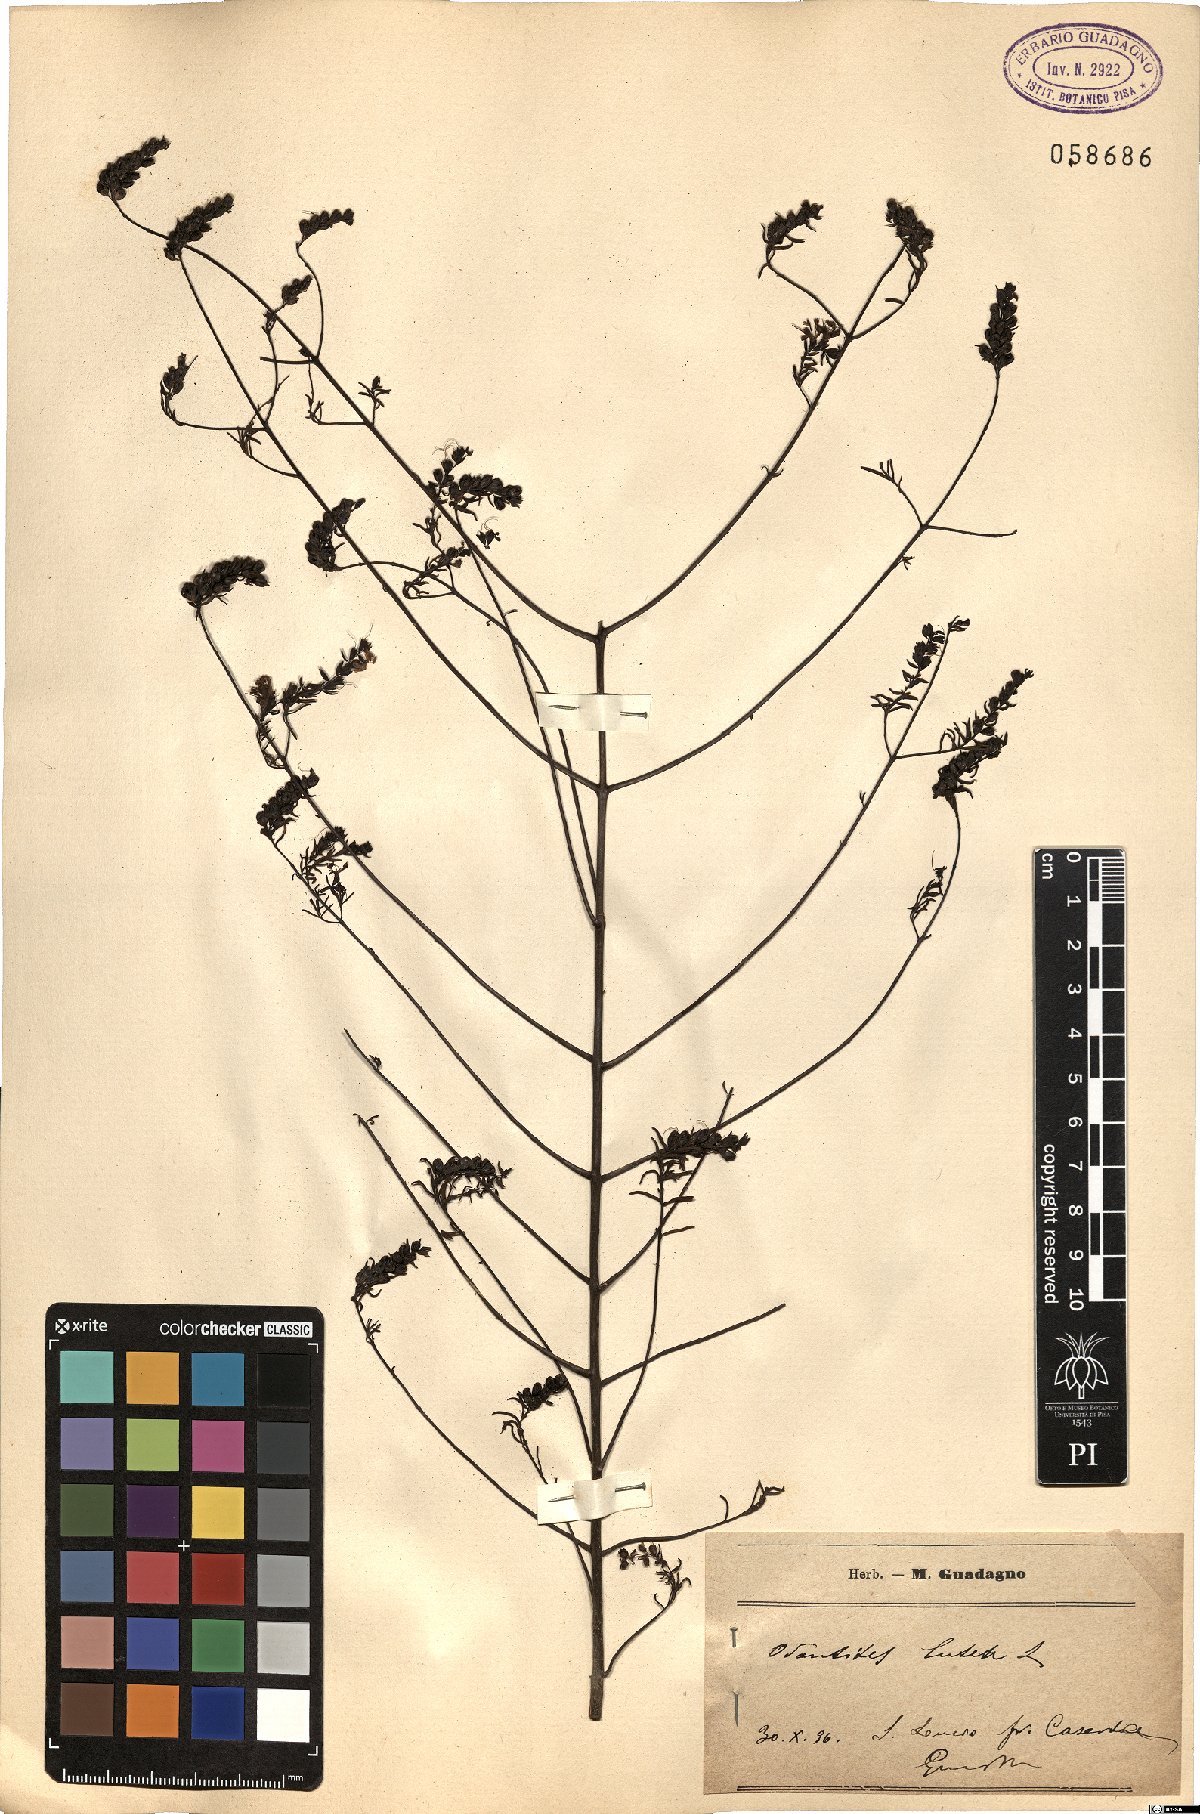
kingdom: Plantae
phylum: Tracheophyta
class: Magnoliopsida
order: Lamiales
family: Orobanchaceae
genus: Odontites
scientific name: Odontites luteus
